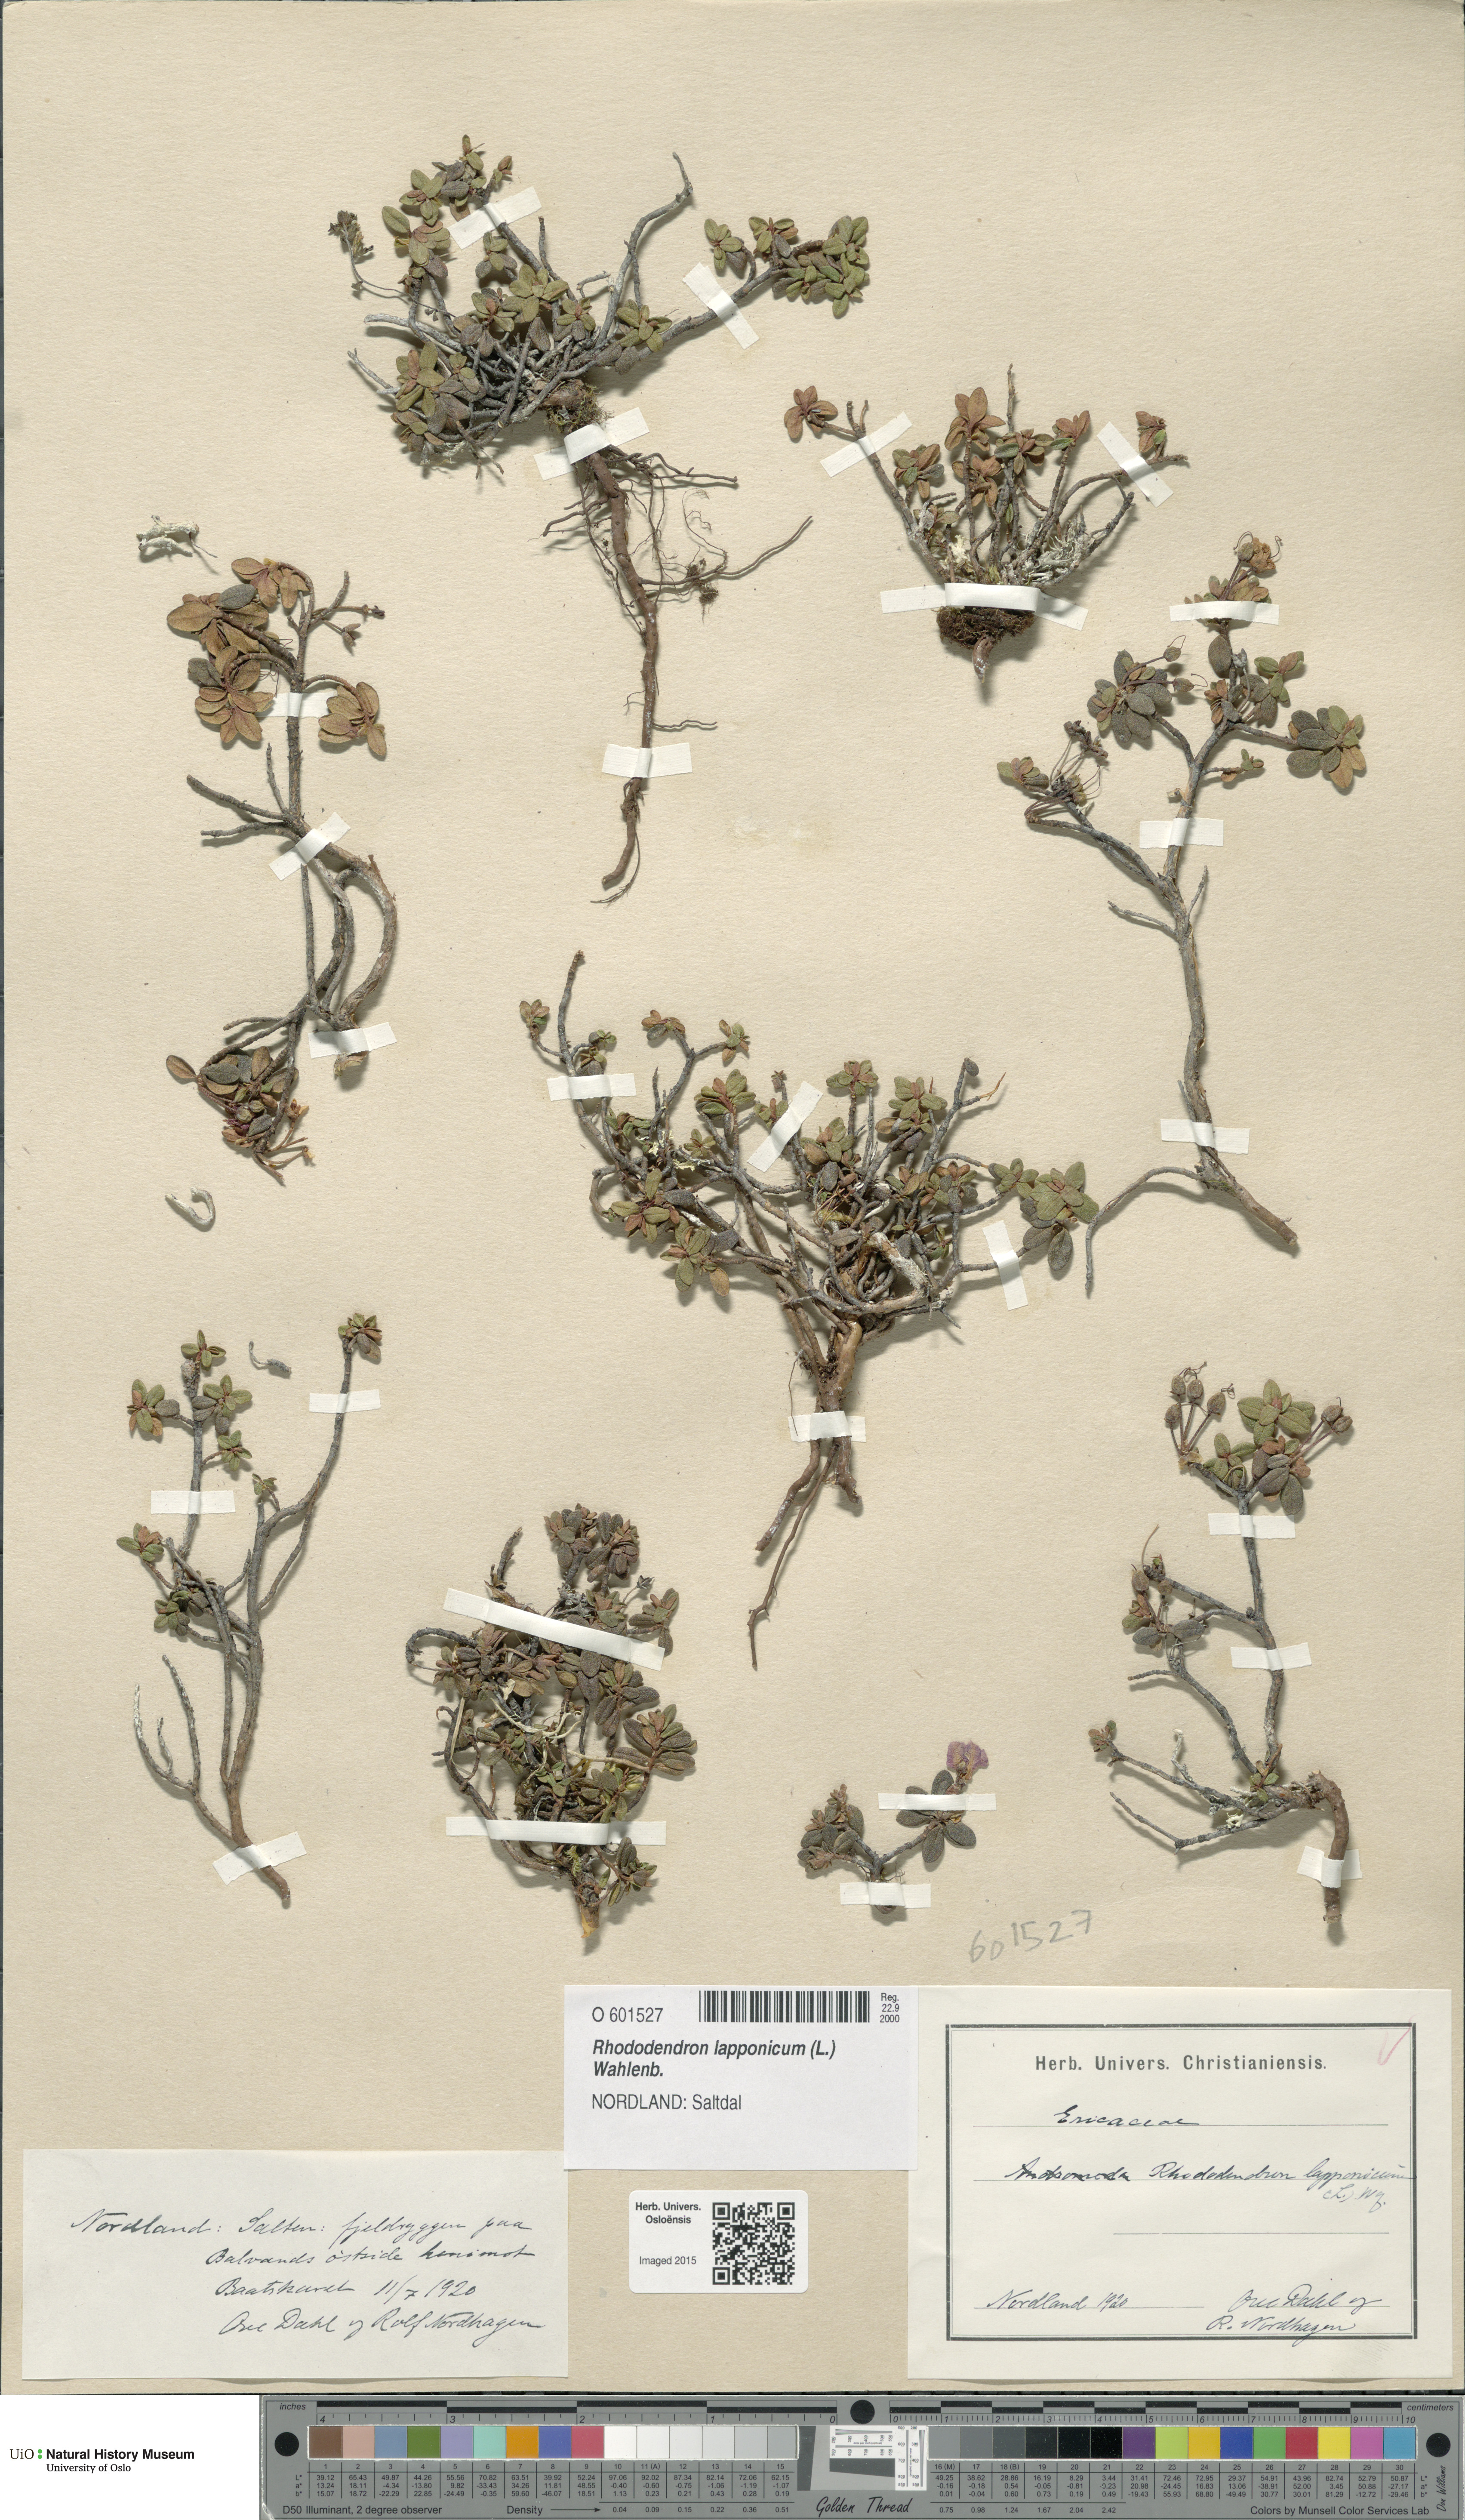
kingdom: Plantae
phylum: Tracheophyta
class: Magnoliopsida
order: Ericales
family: Ericaceae
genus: Rhododendron
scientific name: Rhododendron lapponicum
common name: Lapland rhododendron
